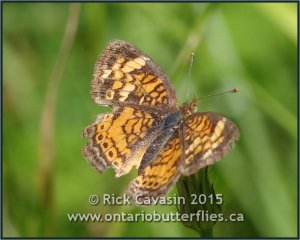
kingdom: Animalia
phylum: Arthropoda
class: Insecta
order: Lepidoptera
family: Nymphalidae
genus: Phyciodes
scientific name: Phyciodes tharos
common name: Pearl Crescent
